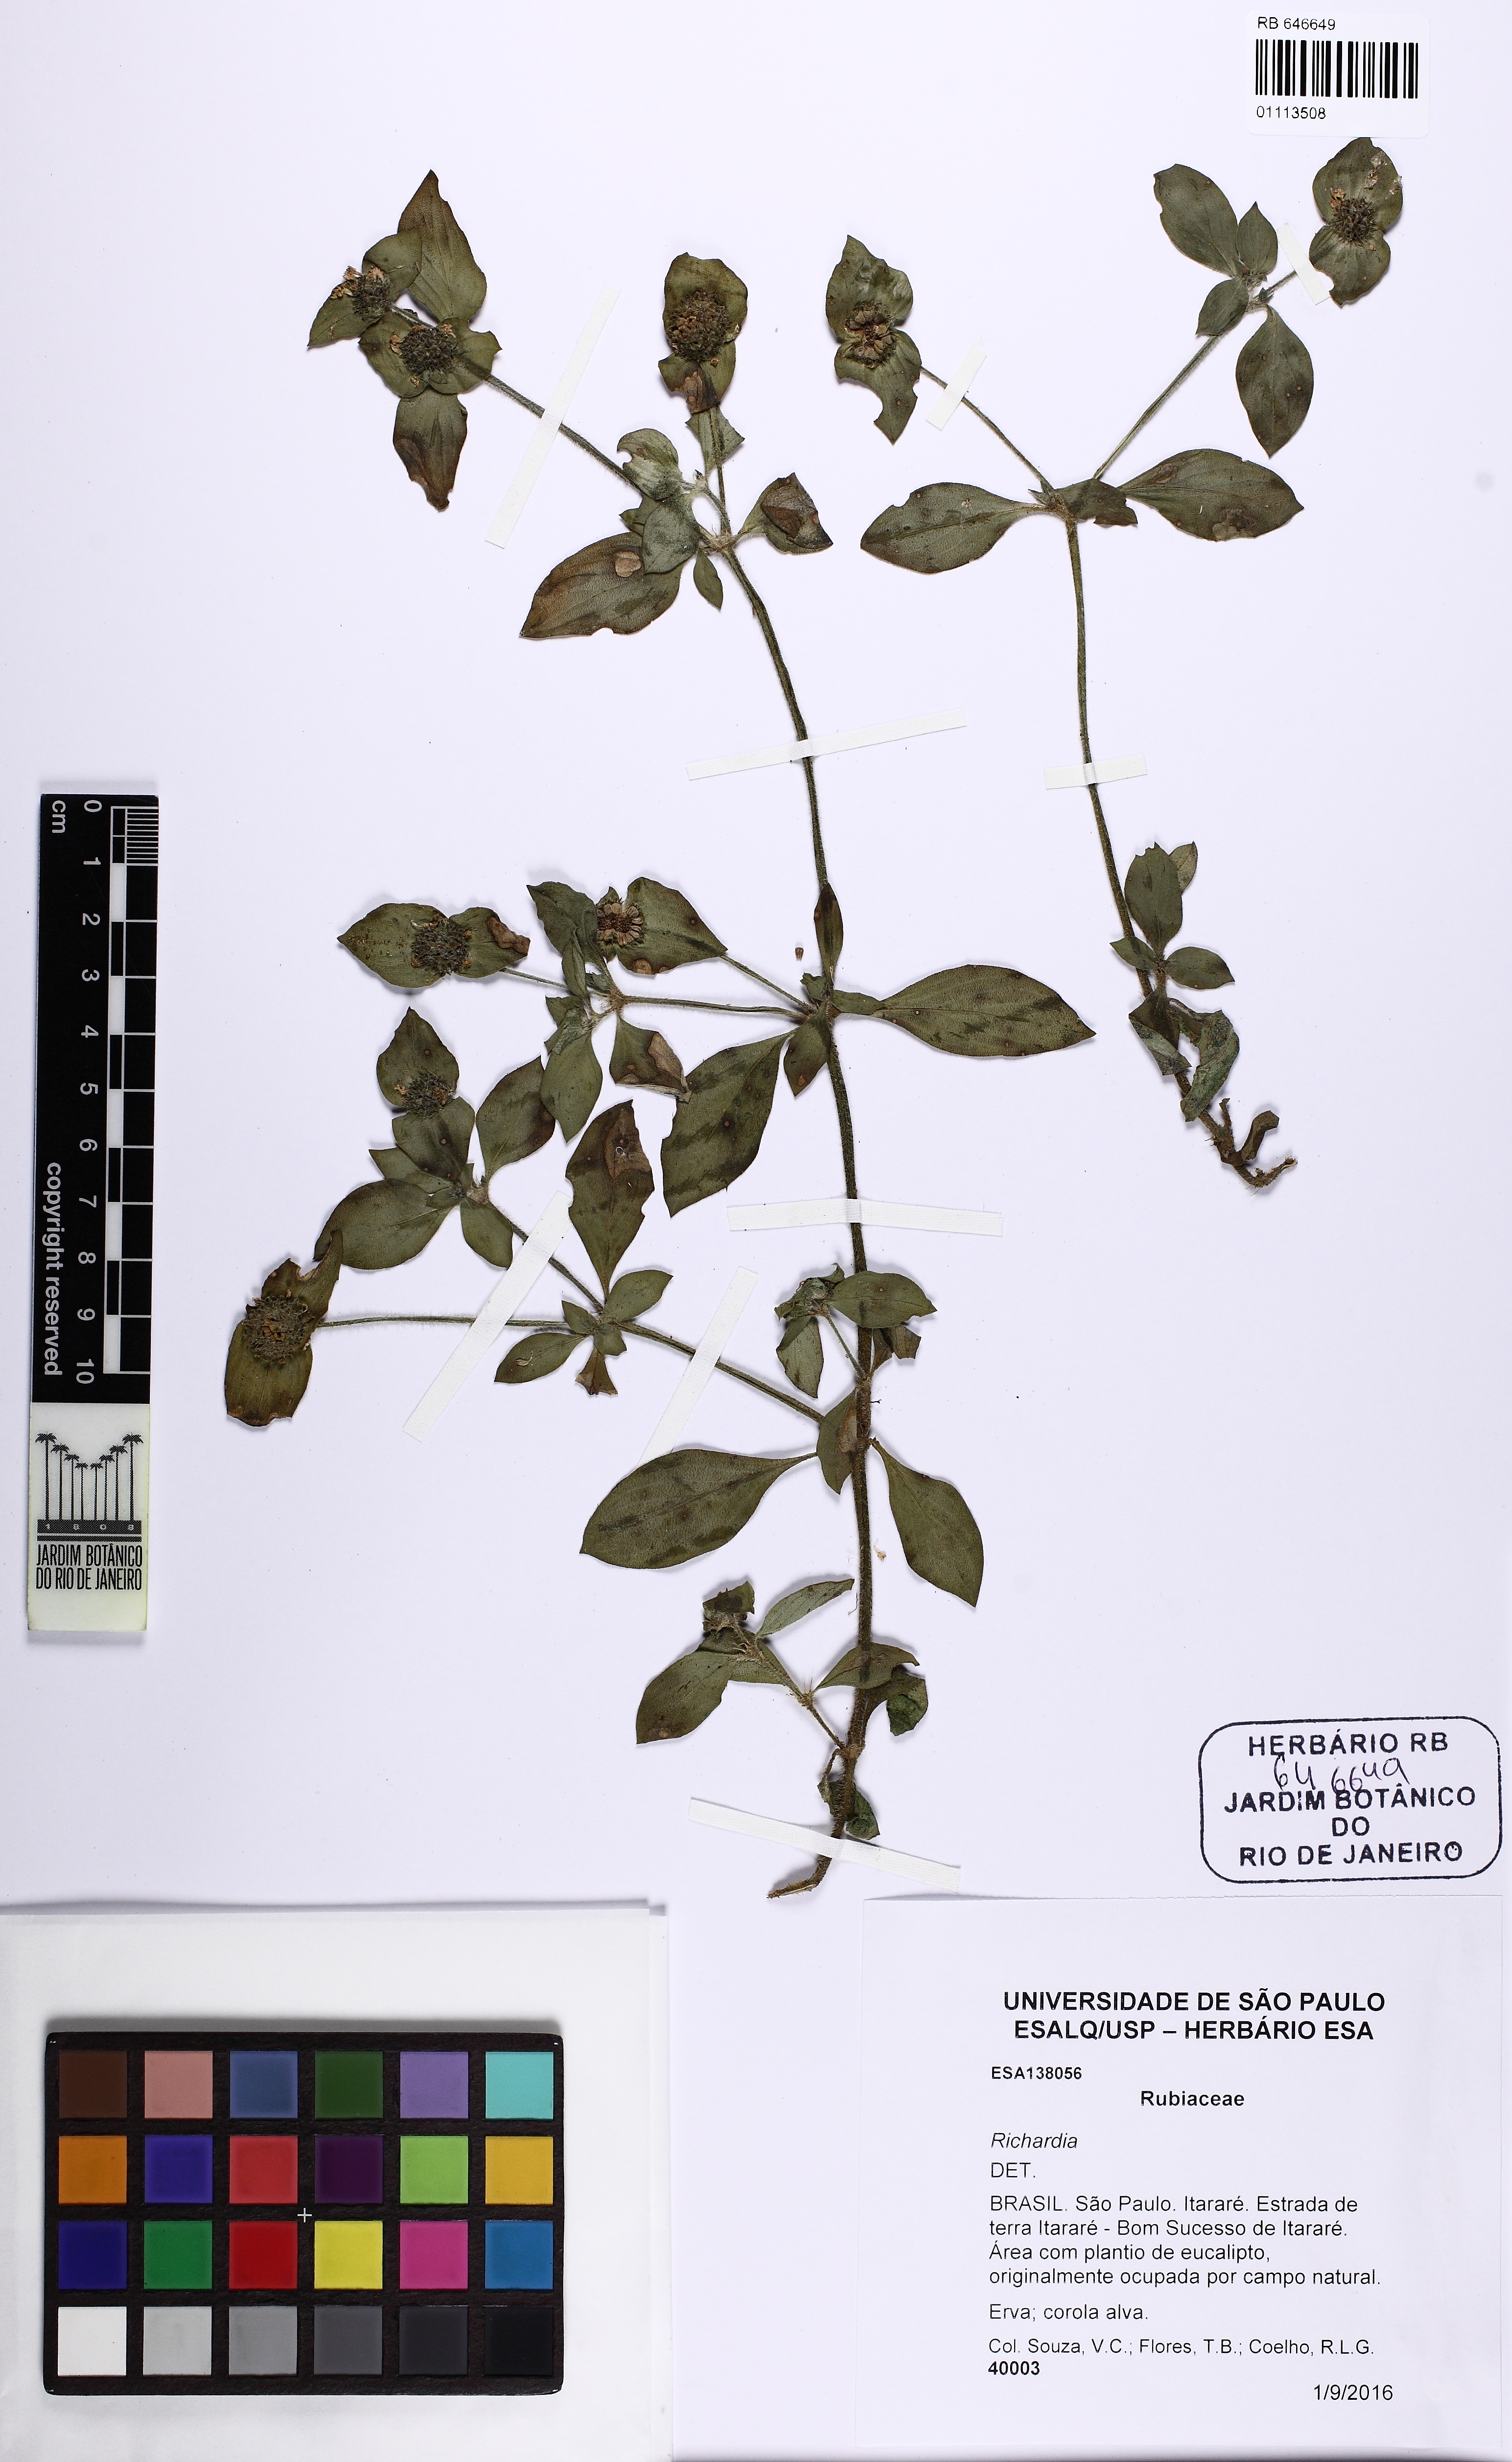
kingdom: Plantae
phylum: Tracheophyta
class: Magnoliopsida
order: Gentianales
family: Rubiaceae
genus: Richardia
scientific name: Richardia
